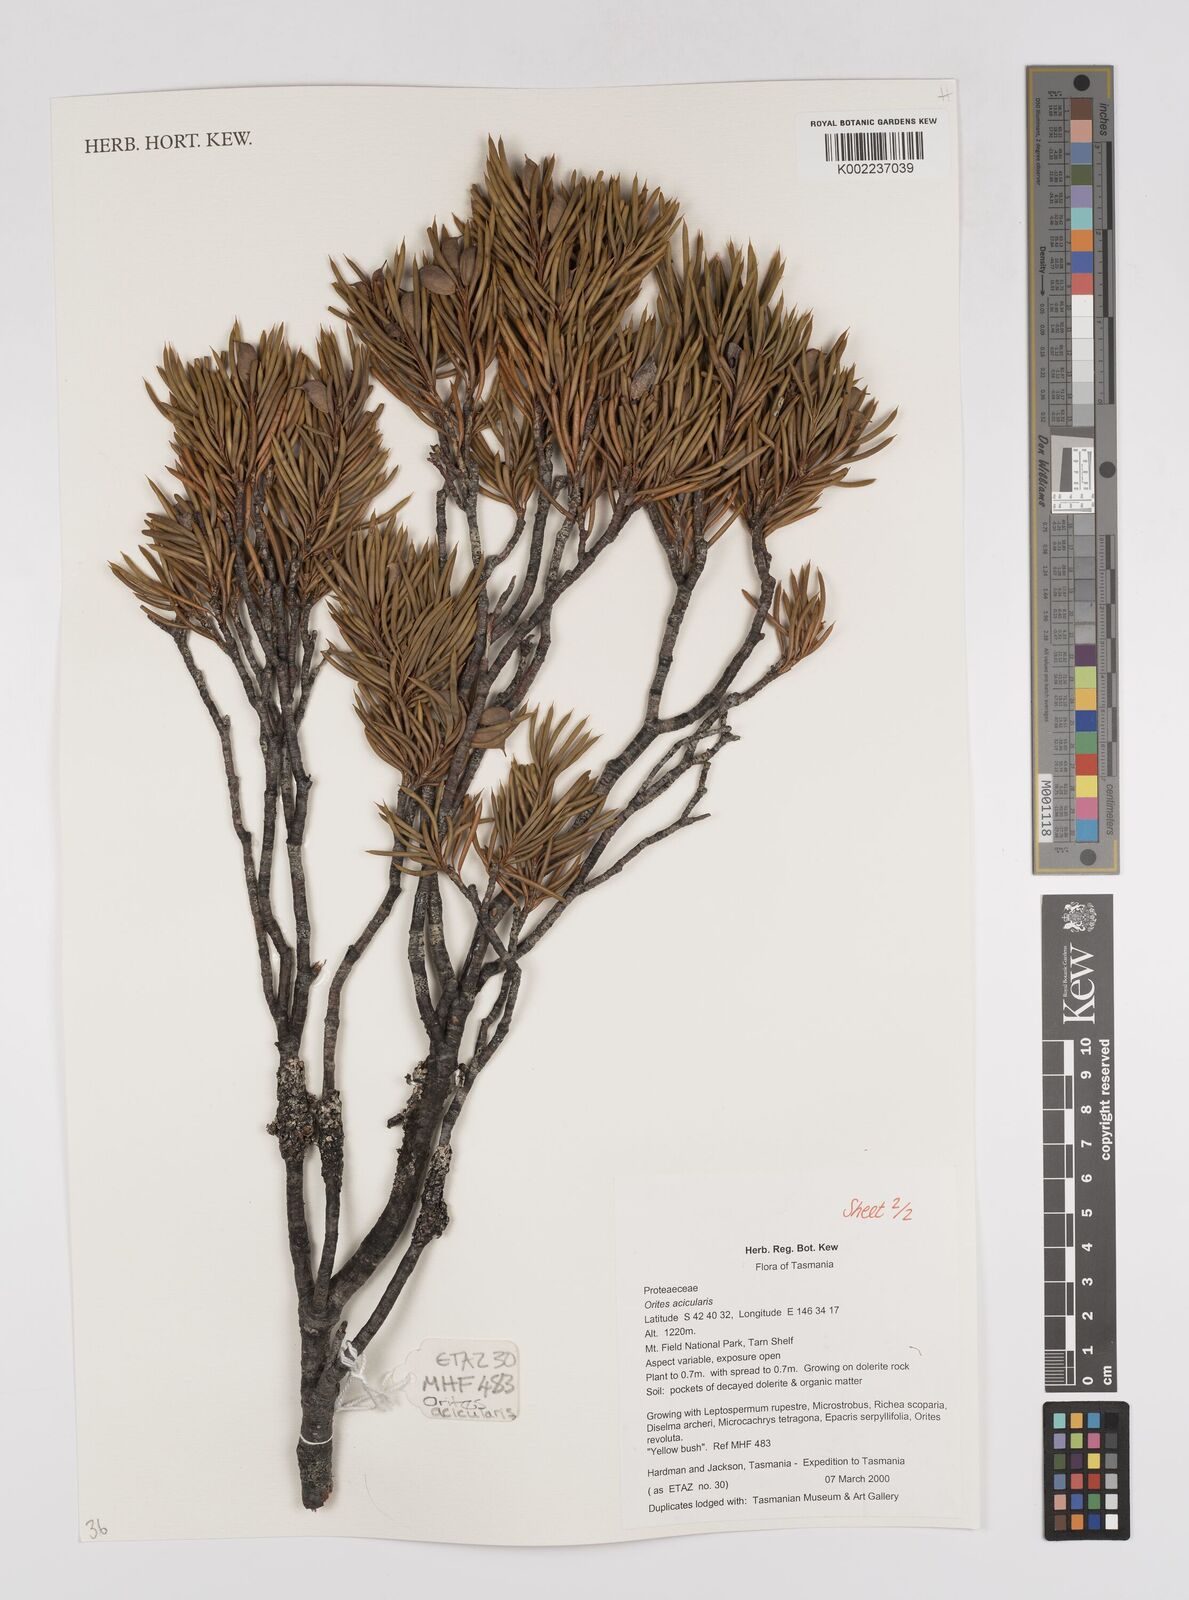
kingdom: Plantae
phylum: Tracheophyta
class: Magnoliopsida
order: Proteales
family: Proteaceae
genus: Orites
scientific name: Orites acicularis
